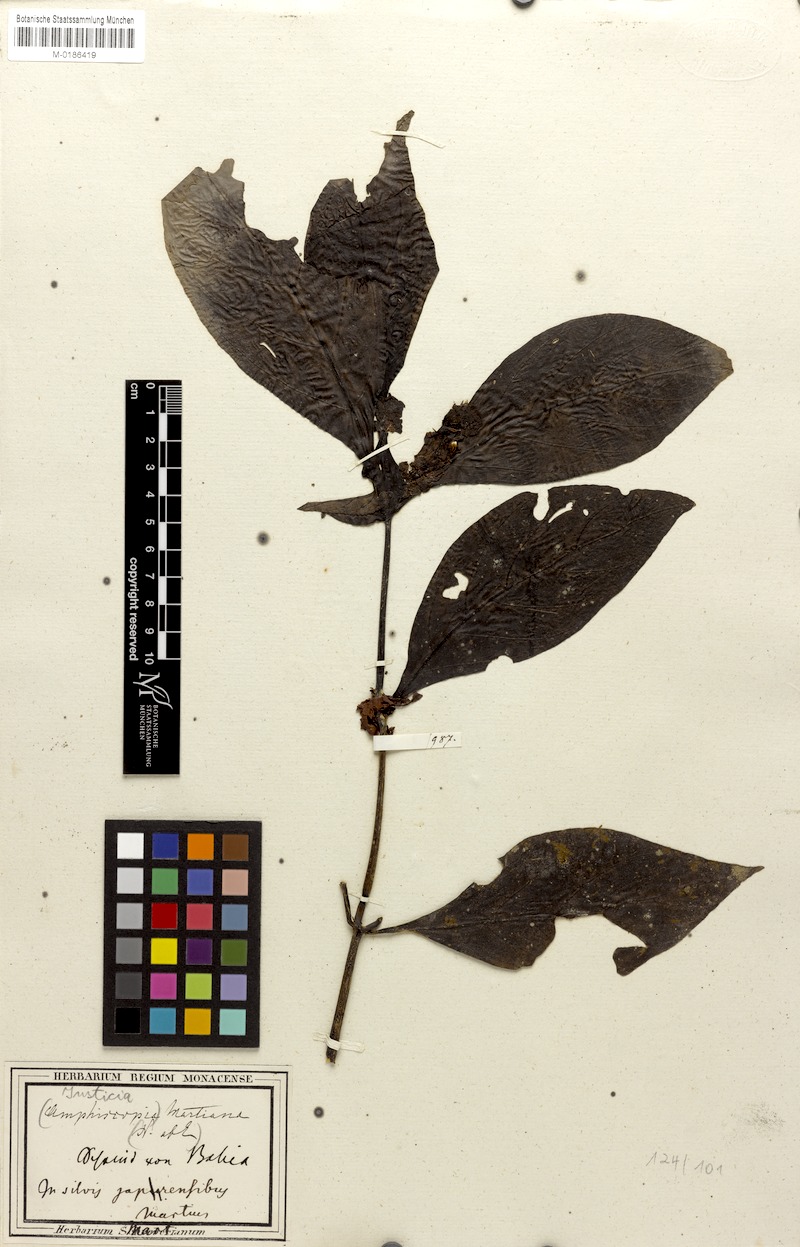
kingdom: Plantae
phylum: Tracheophyta
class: Magnoliopsida
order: Lamiales
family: Acanthaceae
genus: Justicia
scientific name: Justicia martiana
